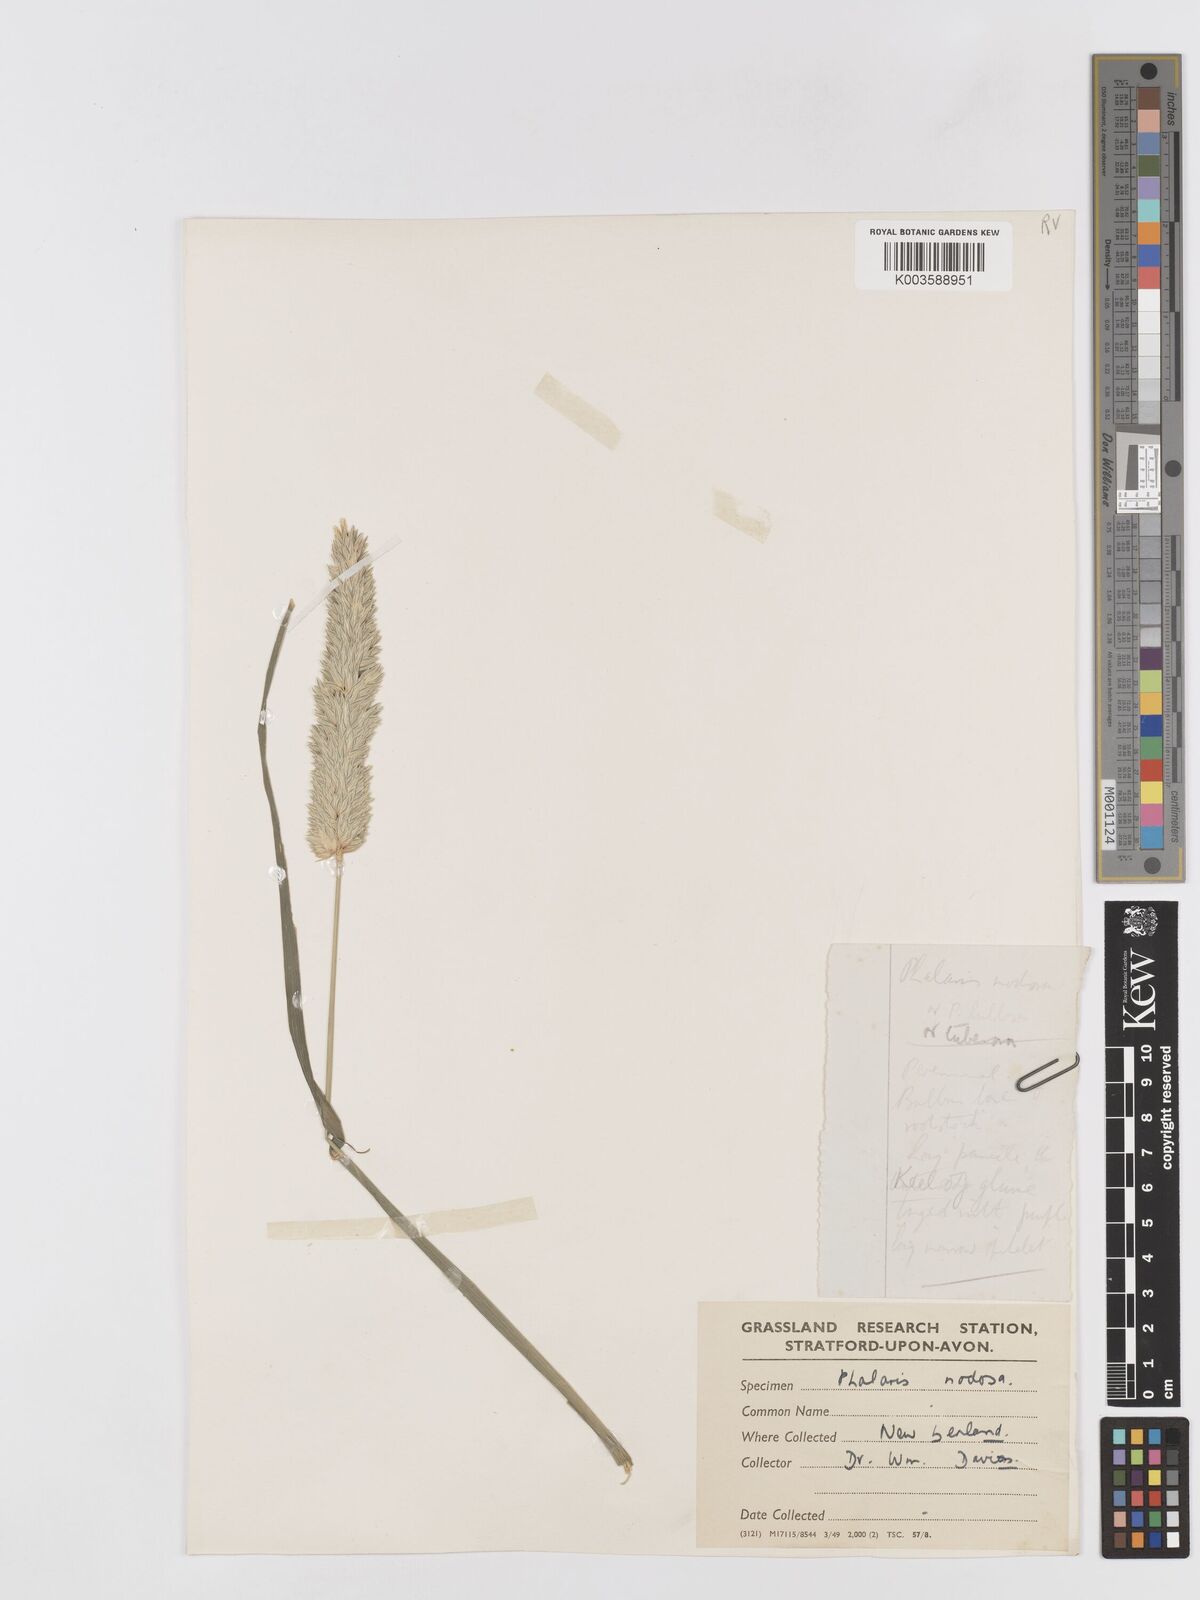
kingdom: Plantae
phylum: Tracheophyta
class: Liliopsida
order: Poales
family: Poaceae
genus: Phalaris
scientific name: Phalaris aquatica
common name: Bulbous canary-grass
